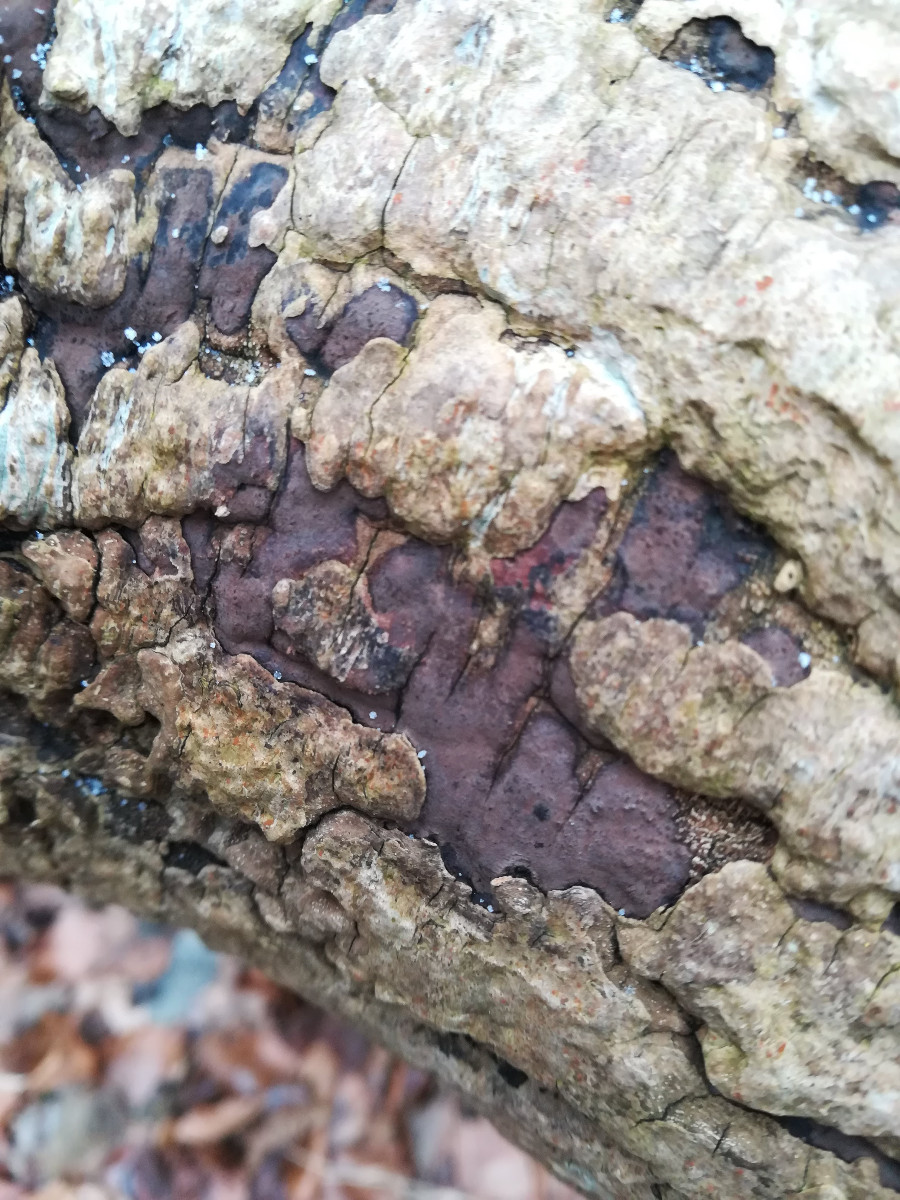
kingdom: Fungi
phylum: Ascomycota
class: Sordariomycetes
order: Xylariales
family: Hypoxylaceae
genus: Hypoxylon
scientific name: Hypoxylon petriniae
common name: nedsænket kulbær
